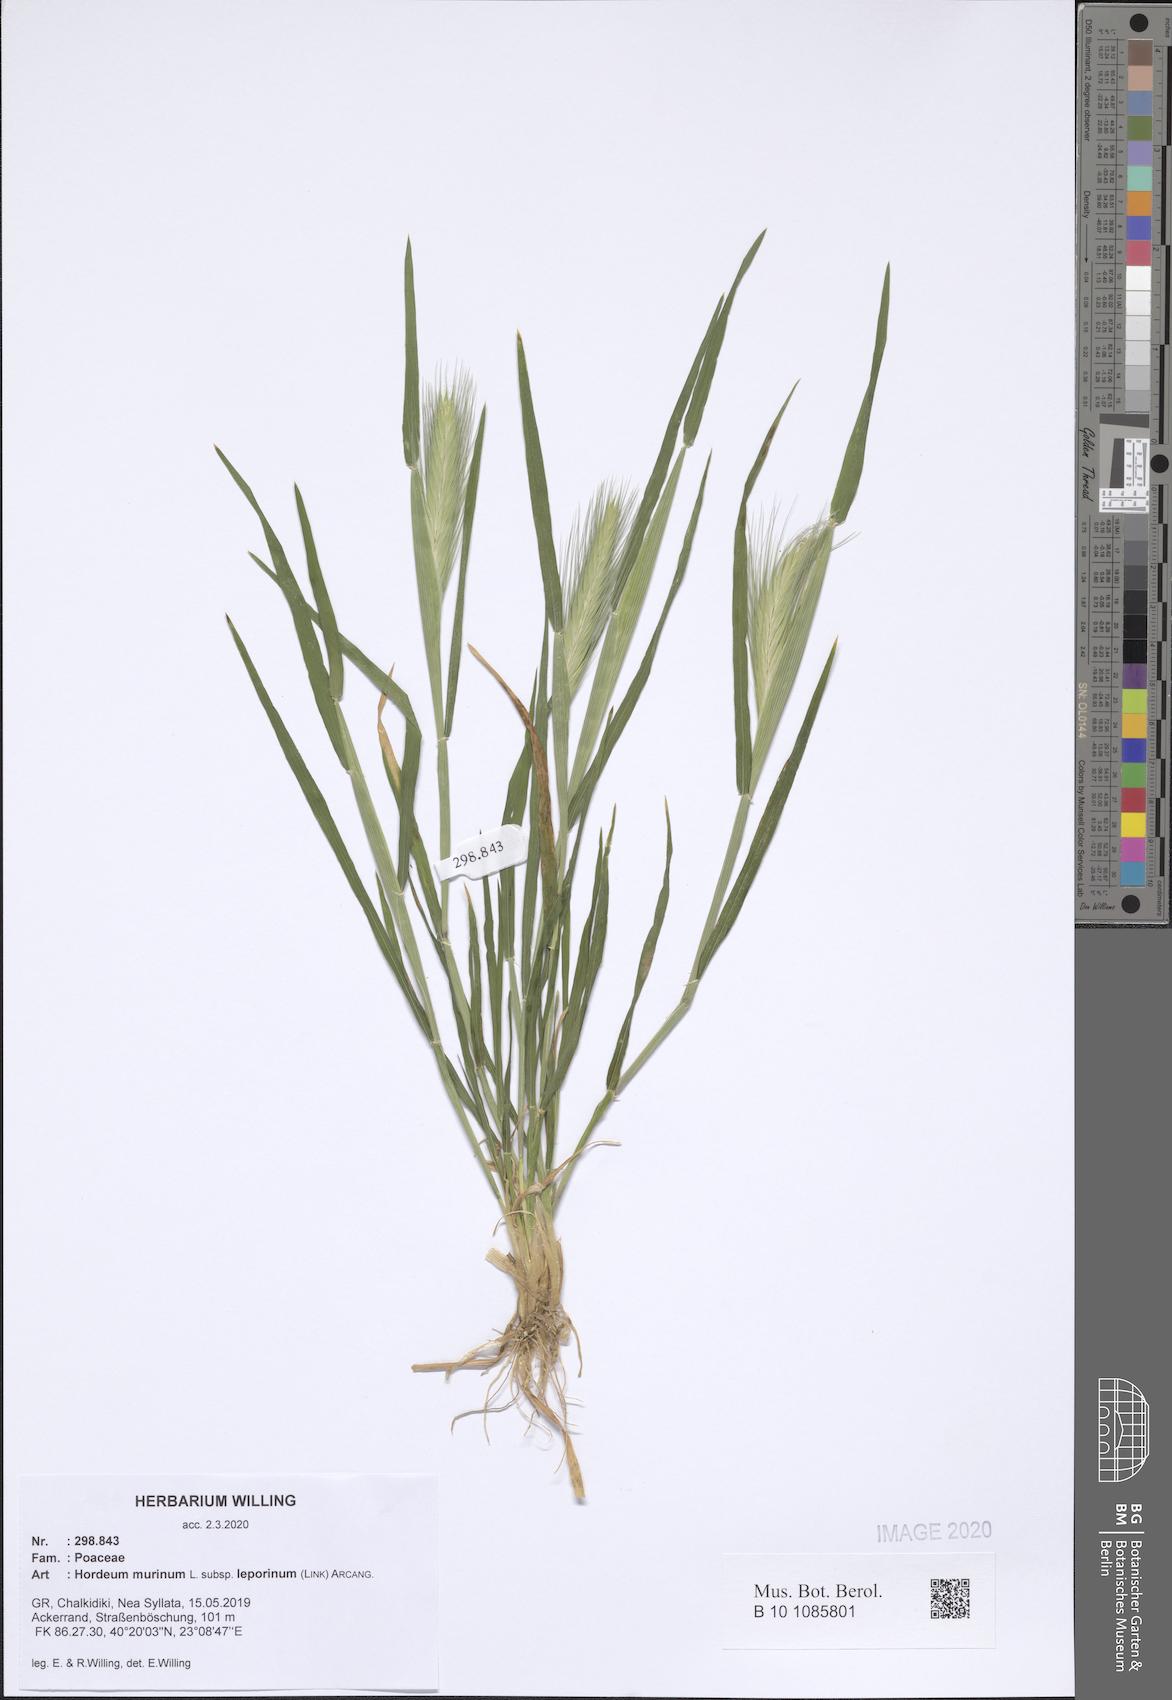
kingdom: Plantae
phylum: Tracheophyta
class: Liliopsida
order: Poales
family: Poaceae
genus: Hordeum
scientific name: Hordeum murinum
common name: Wall barley
